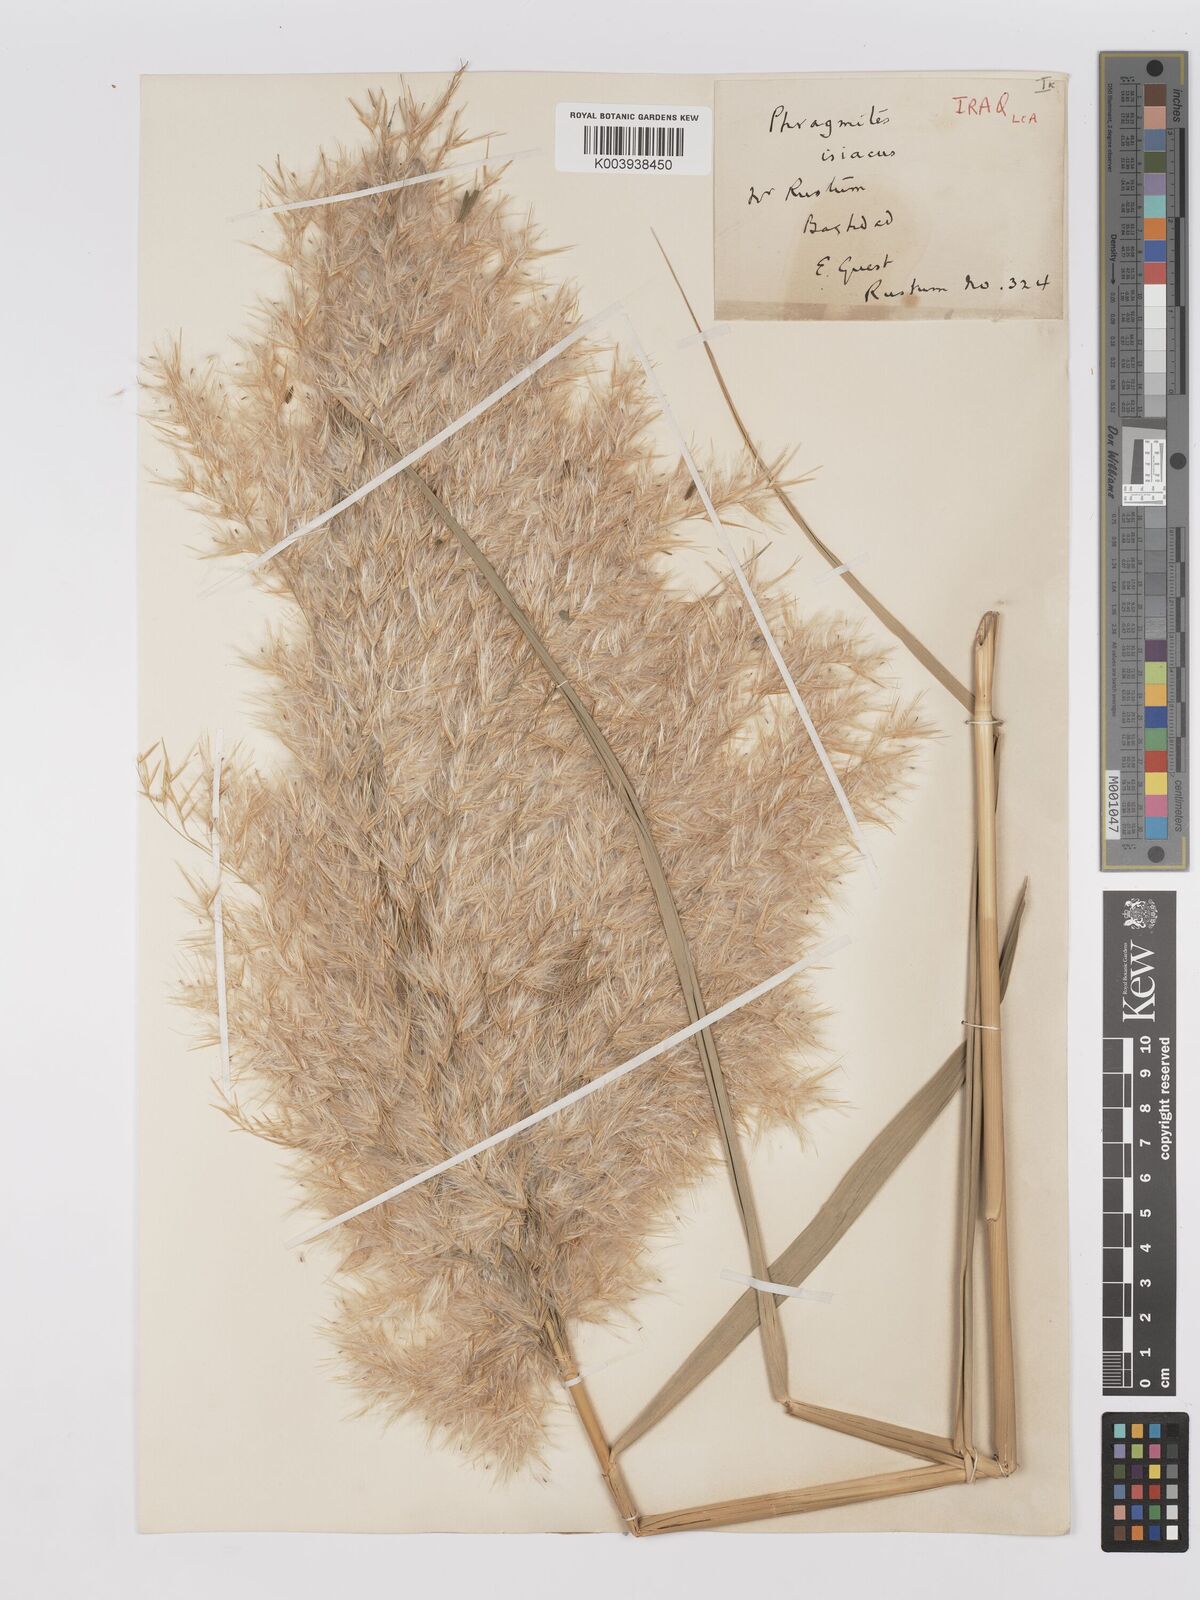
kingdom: Plantae
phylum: Tracheophyta
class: Liliopsida
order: Poales
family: Poaceae
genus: Phragmites
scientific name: Phragmites australis
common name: Common reed
